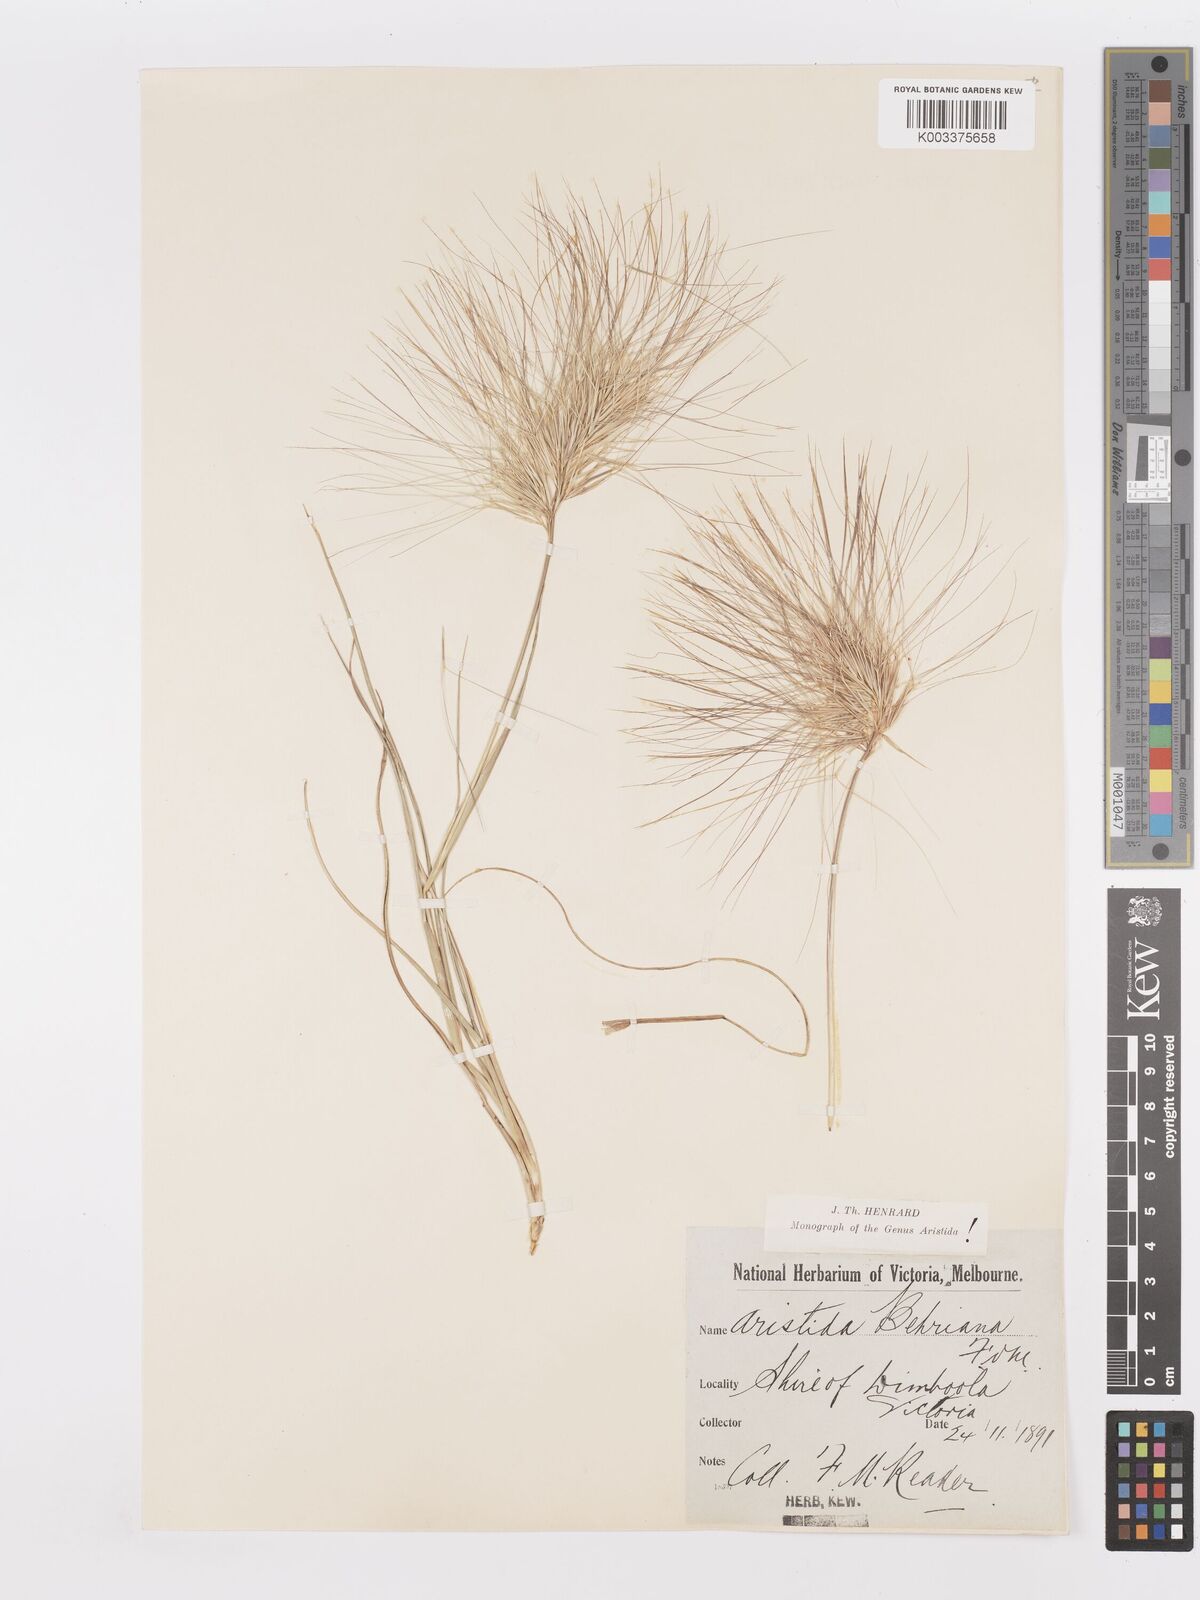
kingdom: Plantae
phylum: Tracheophyta
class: Liliopsida
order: Poales
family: Poaceae
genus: Aristida
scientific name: Aristida behriana
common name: Long-awn wire grass
